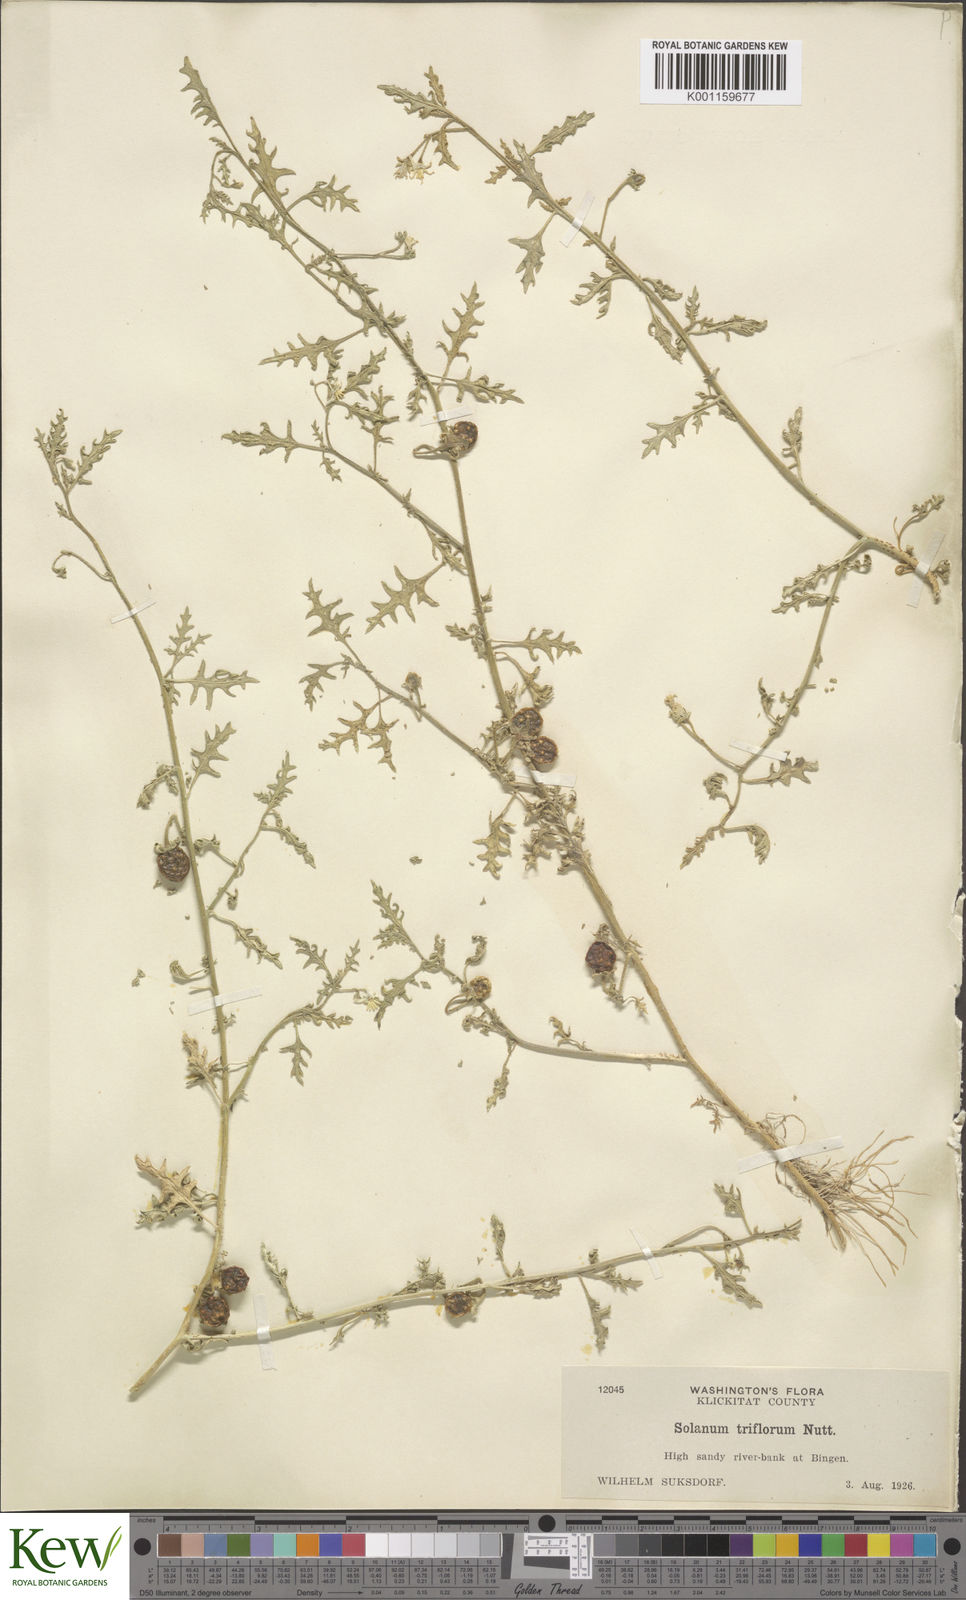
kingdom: Plantae
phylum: Tracheophyta
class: Magnoliopsida
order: Solanales
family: Solanaceae
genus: Solanum
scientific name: Solanum triflorum
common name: Small nightshade
